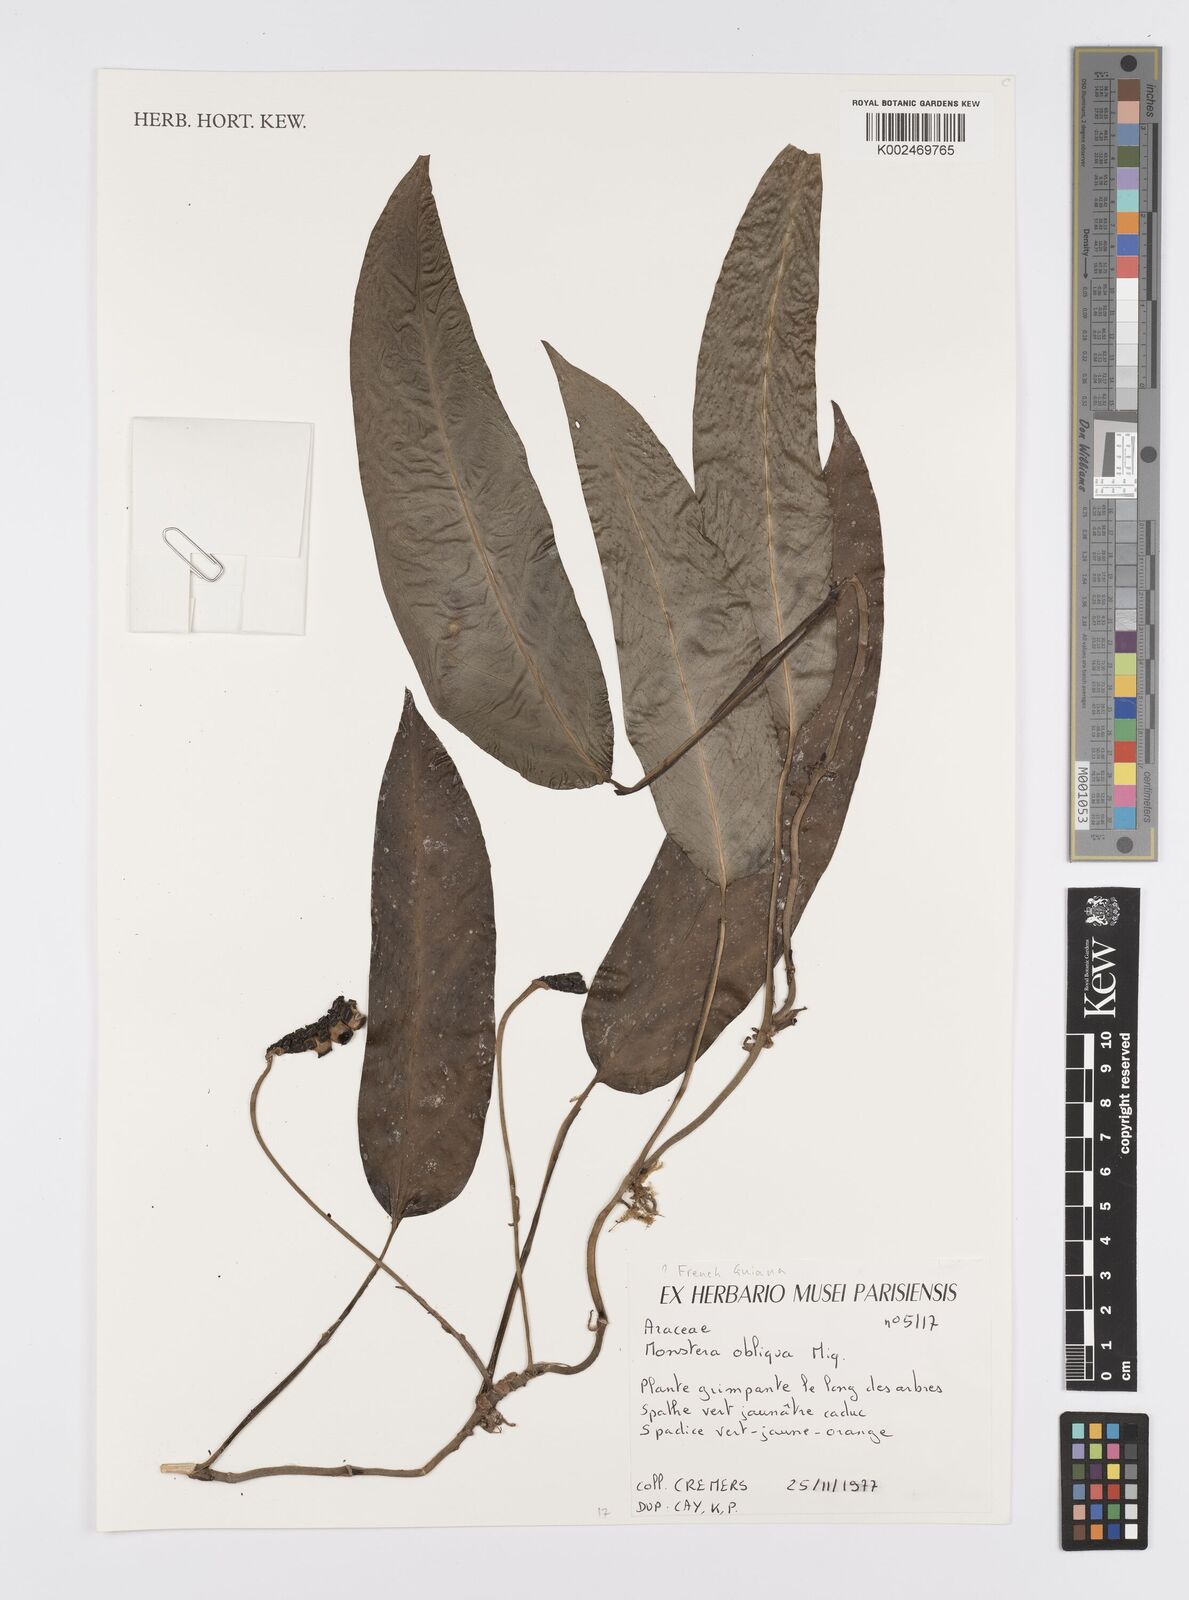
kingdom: Plantae
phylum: Tracheophyta
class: Liliopsida
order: Alismatales
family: Araceae
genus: Monstera
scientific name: Monstera obliqua
